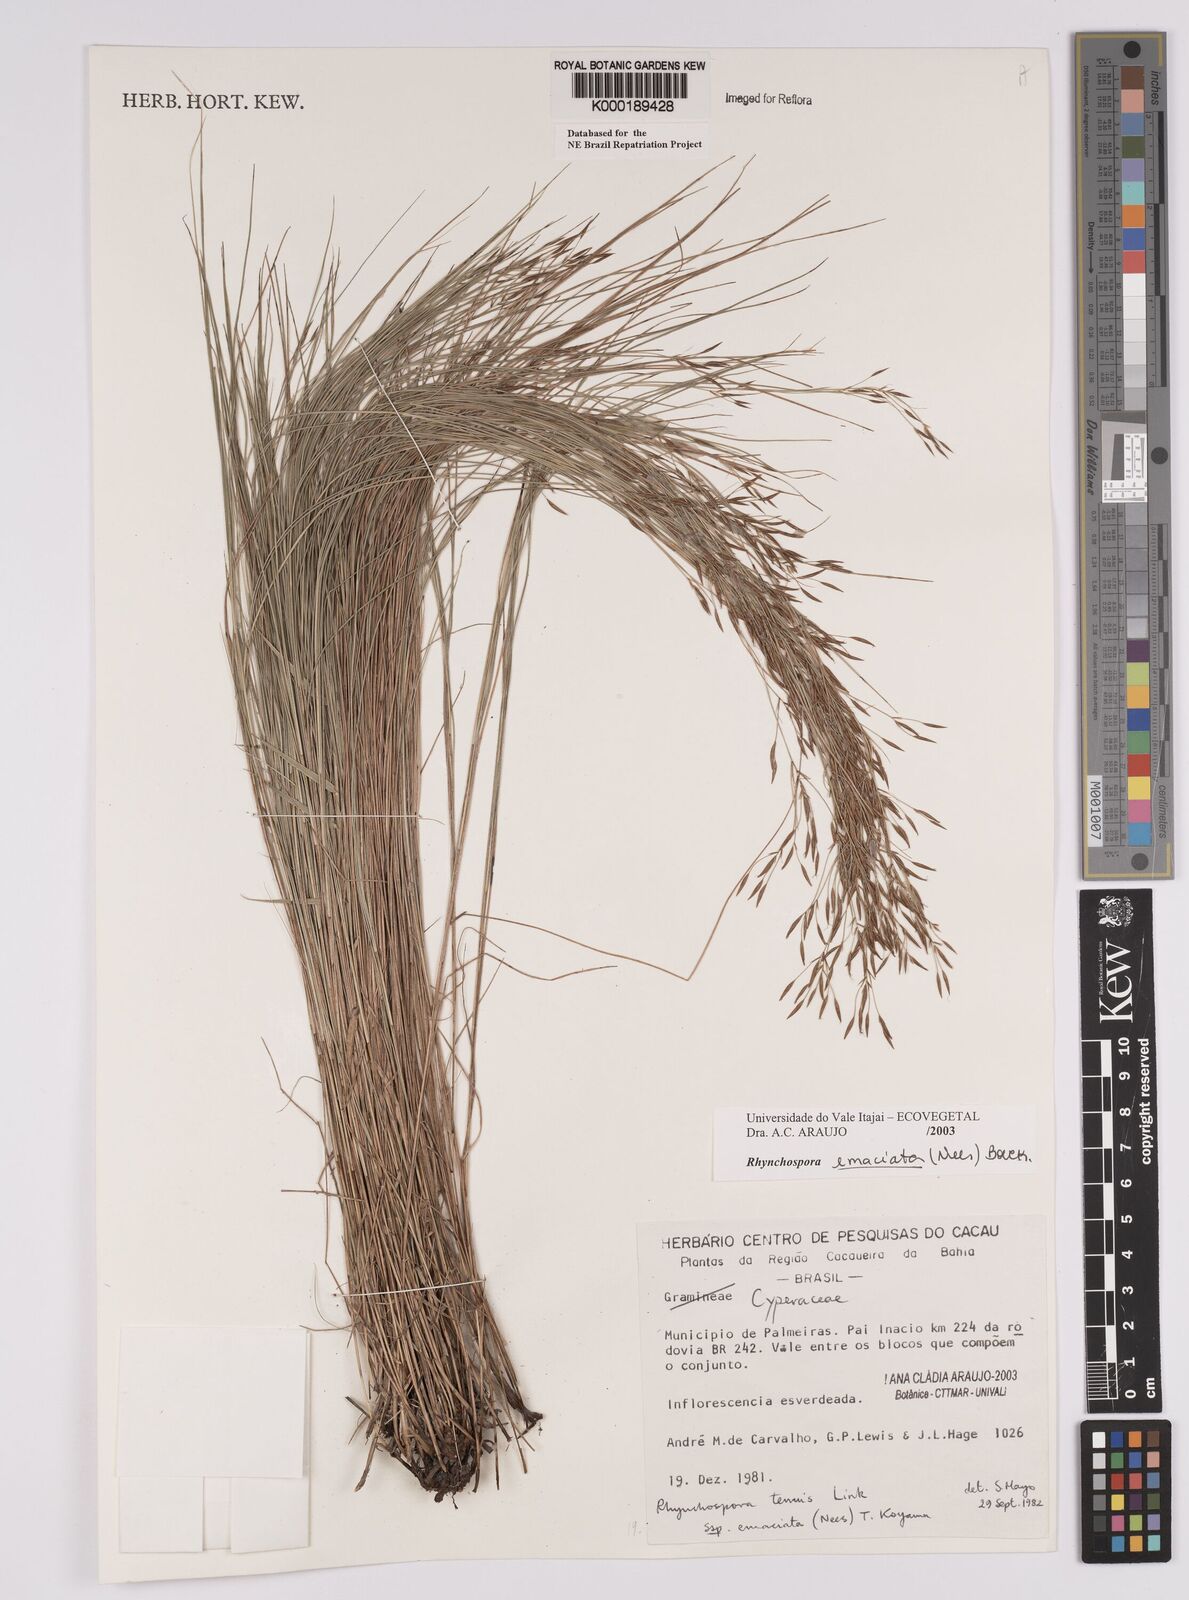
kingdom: Plantae
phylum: Tracheophyta
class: Liliopsida
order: Poales
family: Cyperaceae
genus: Rhynchospora
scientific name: Rhynchospora emaciata
